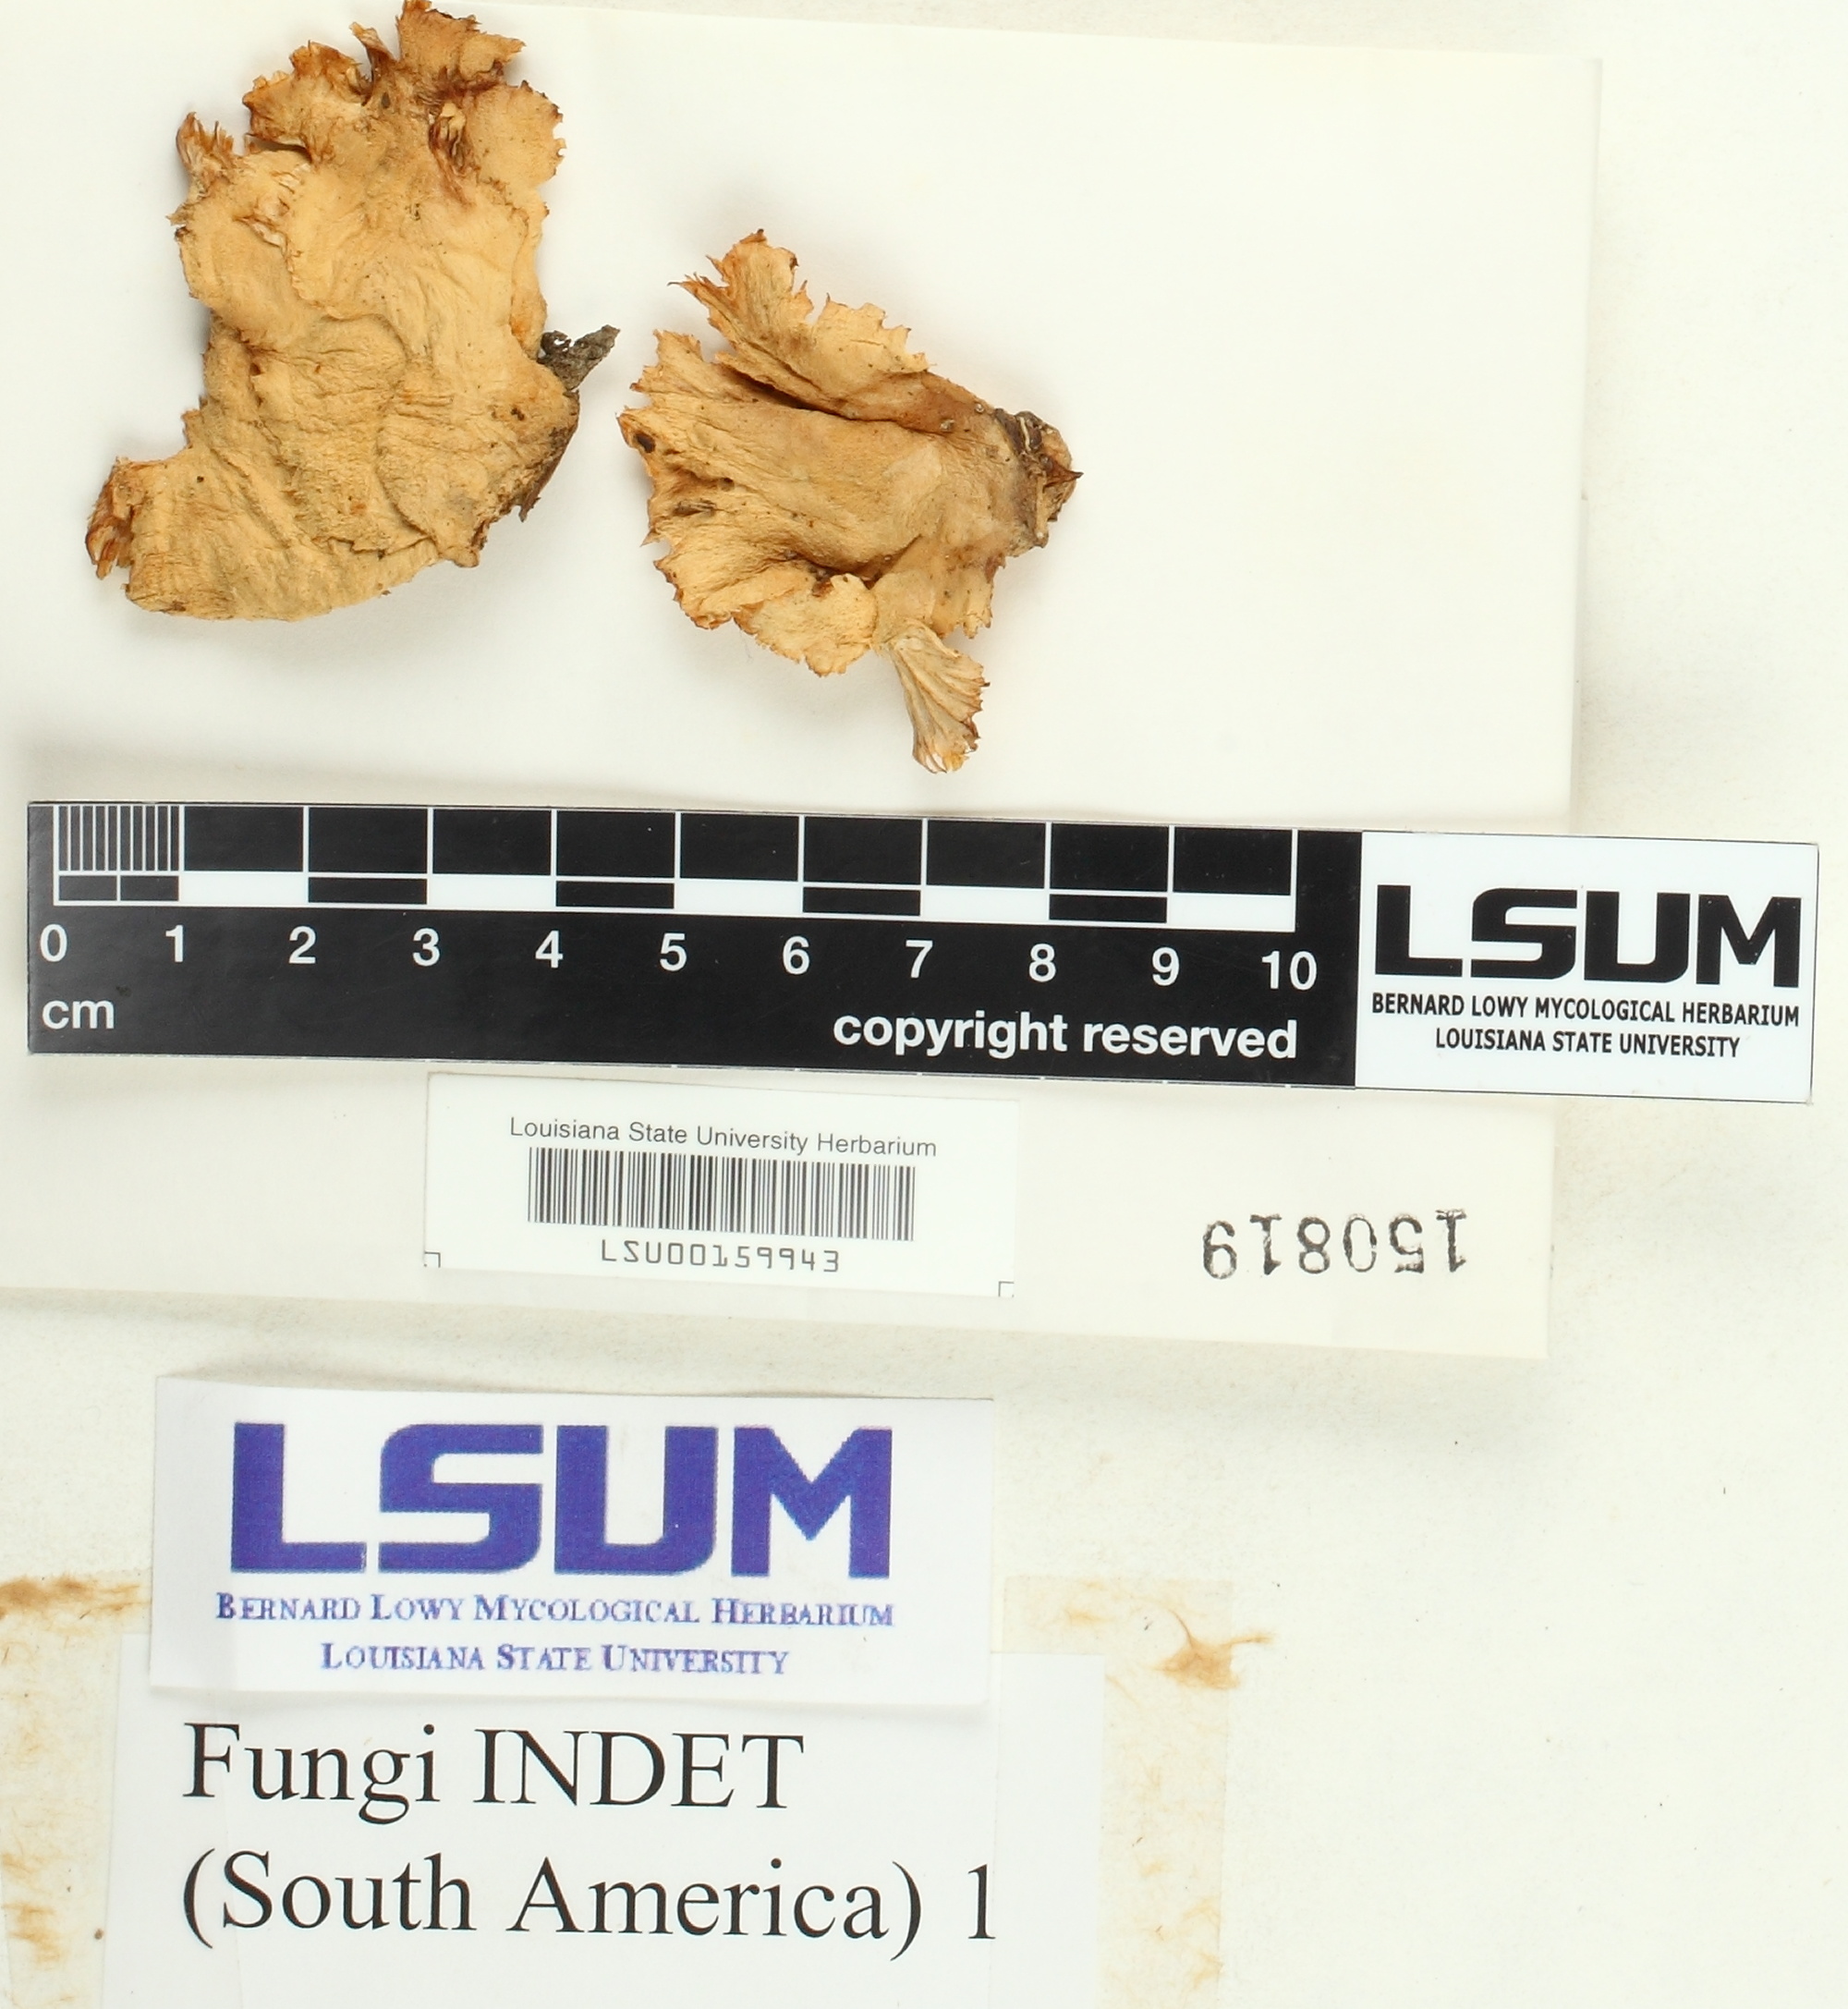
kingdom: Fungi
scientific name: Fungi
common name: Fungi
